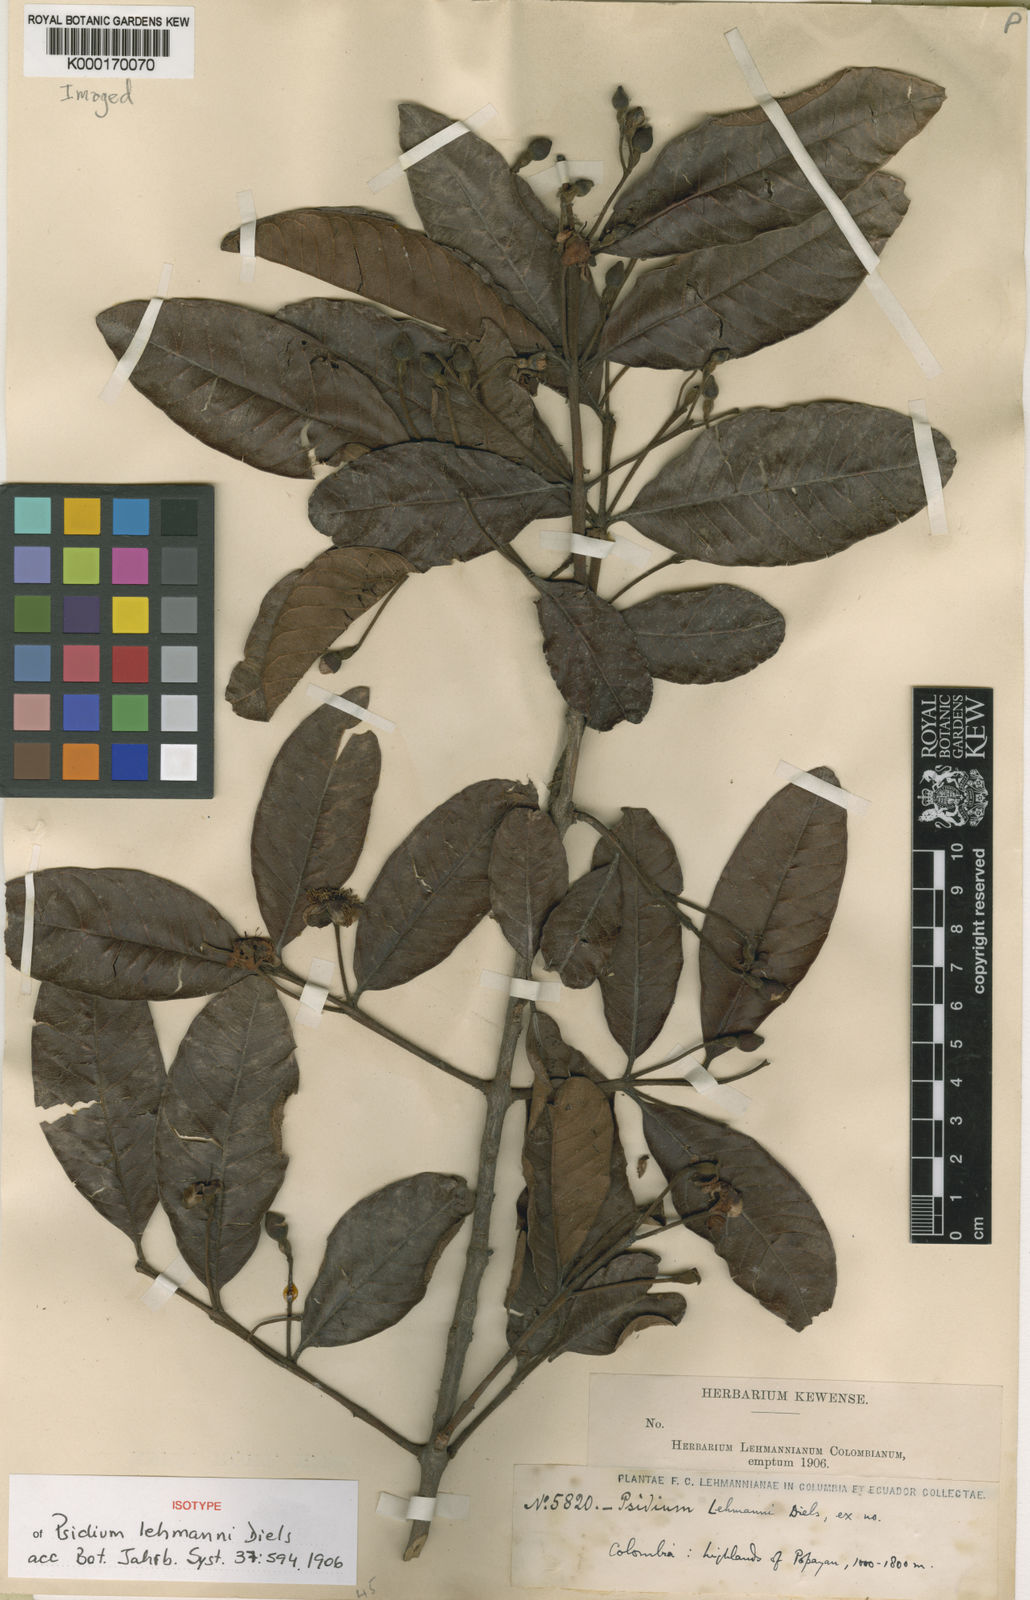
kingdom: Plantae
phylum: Tracheophyta
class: Magnoliopsida
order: Myrtales
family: Myrtaceae
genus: Psidium
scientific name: Psidium guineense
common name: Brazilian guava
